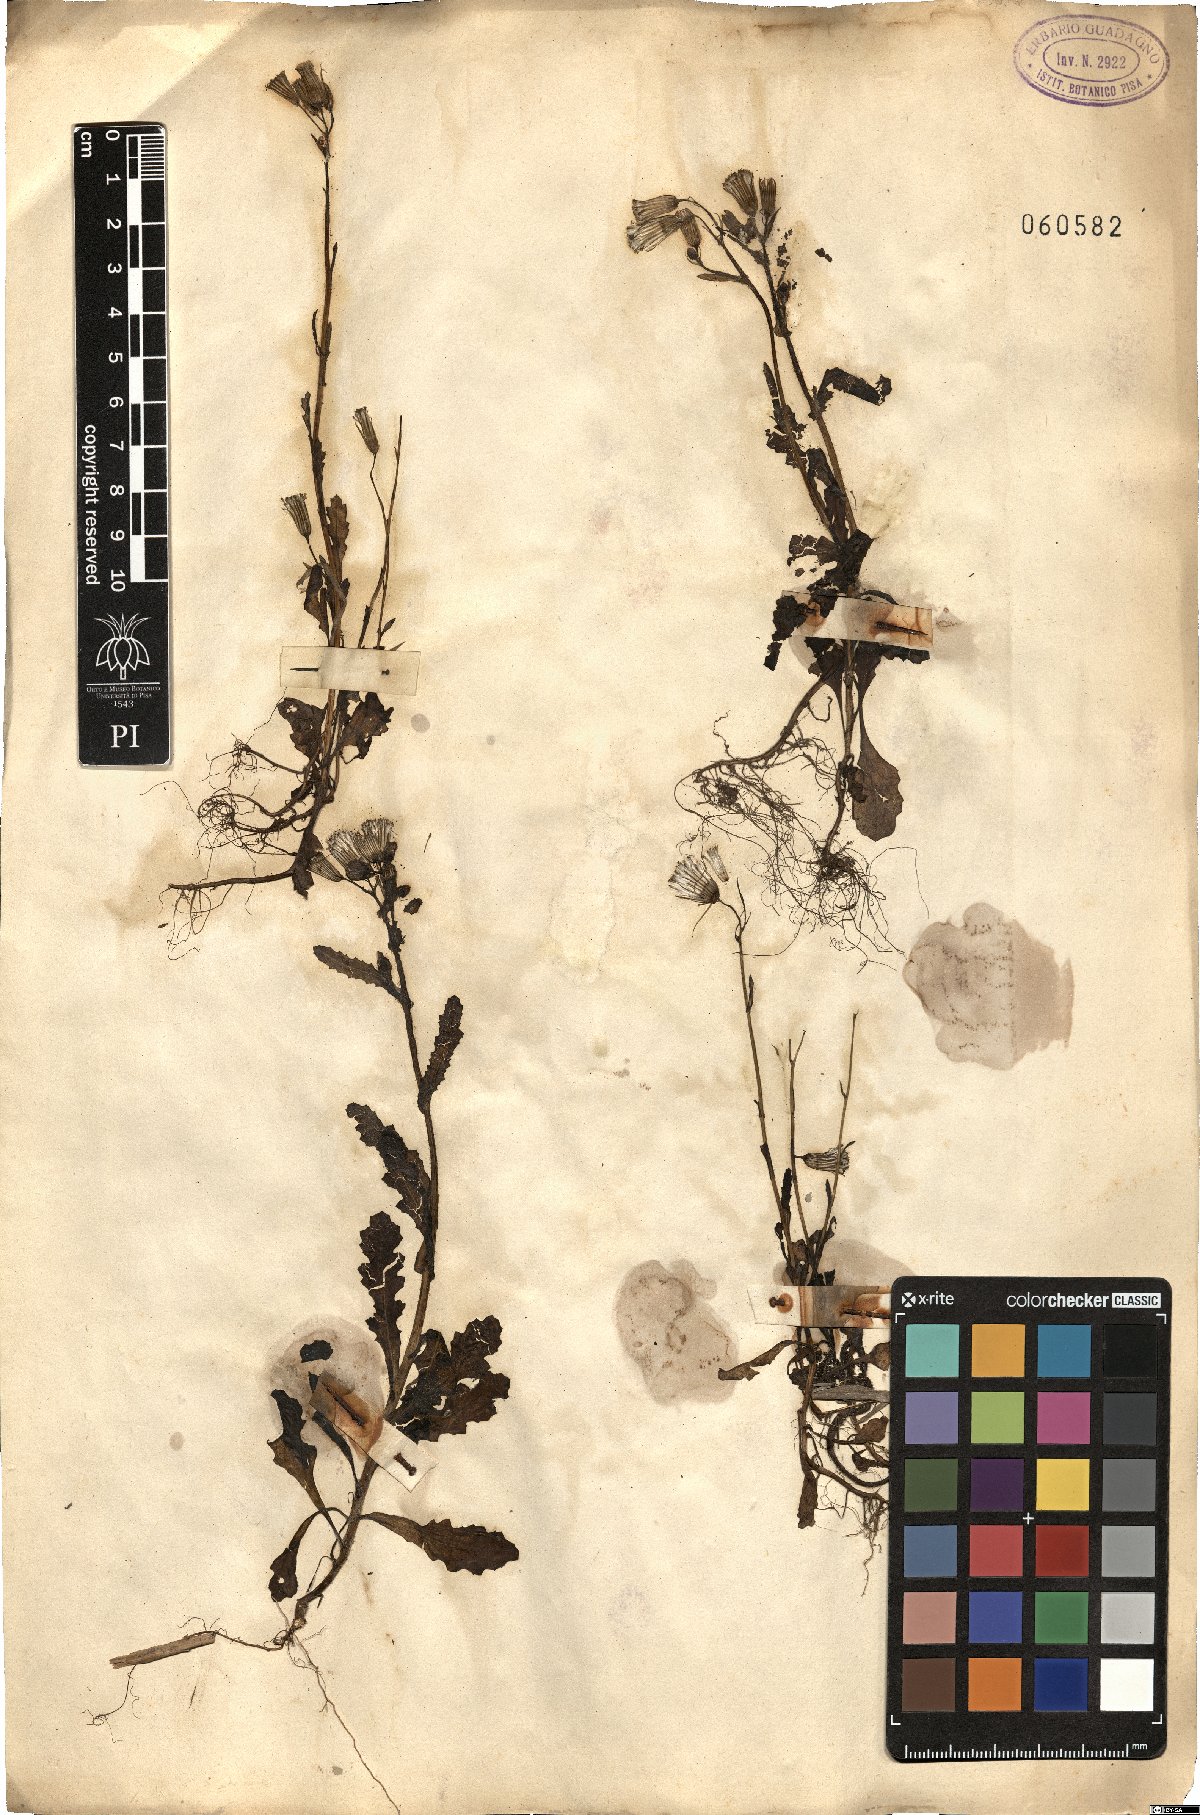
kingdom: Plantae
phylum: Tracheophyta
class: Magnoliopsida
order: Asterales
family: Asteraceae
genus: Sonchus
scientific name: Sonchus
